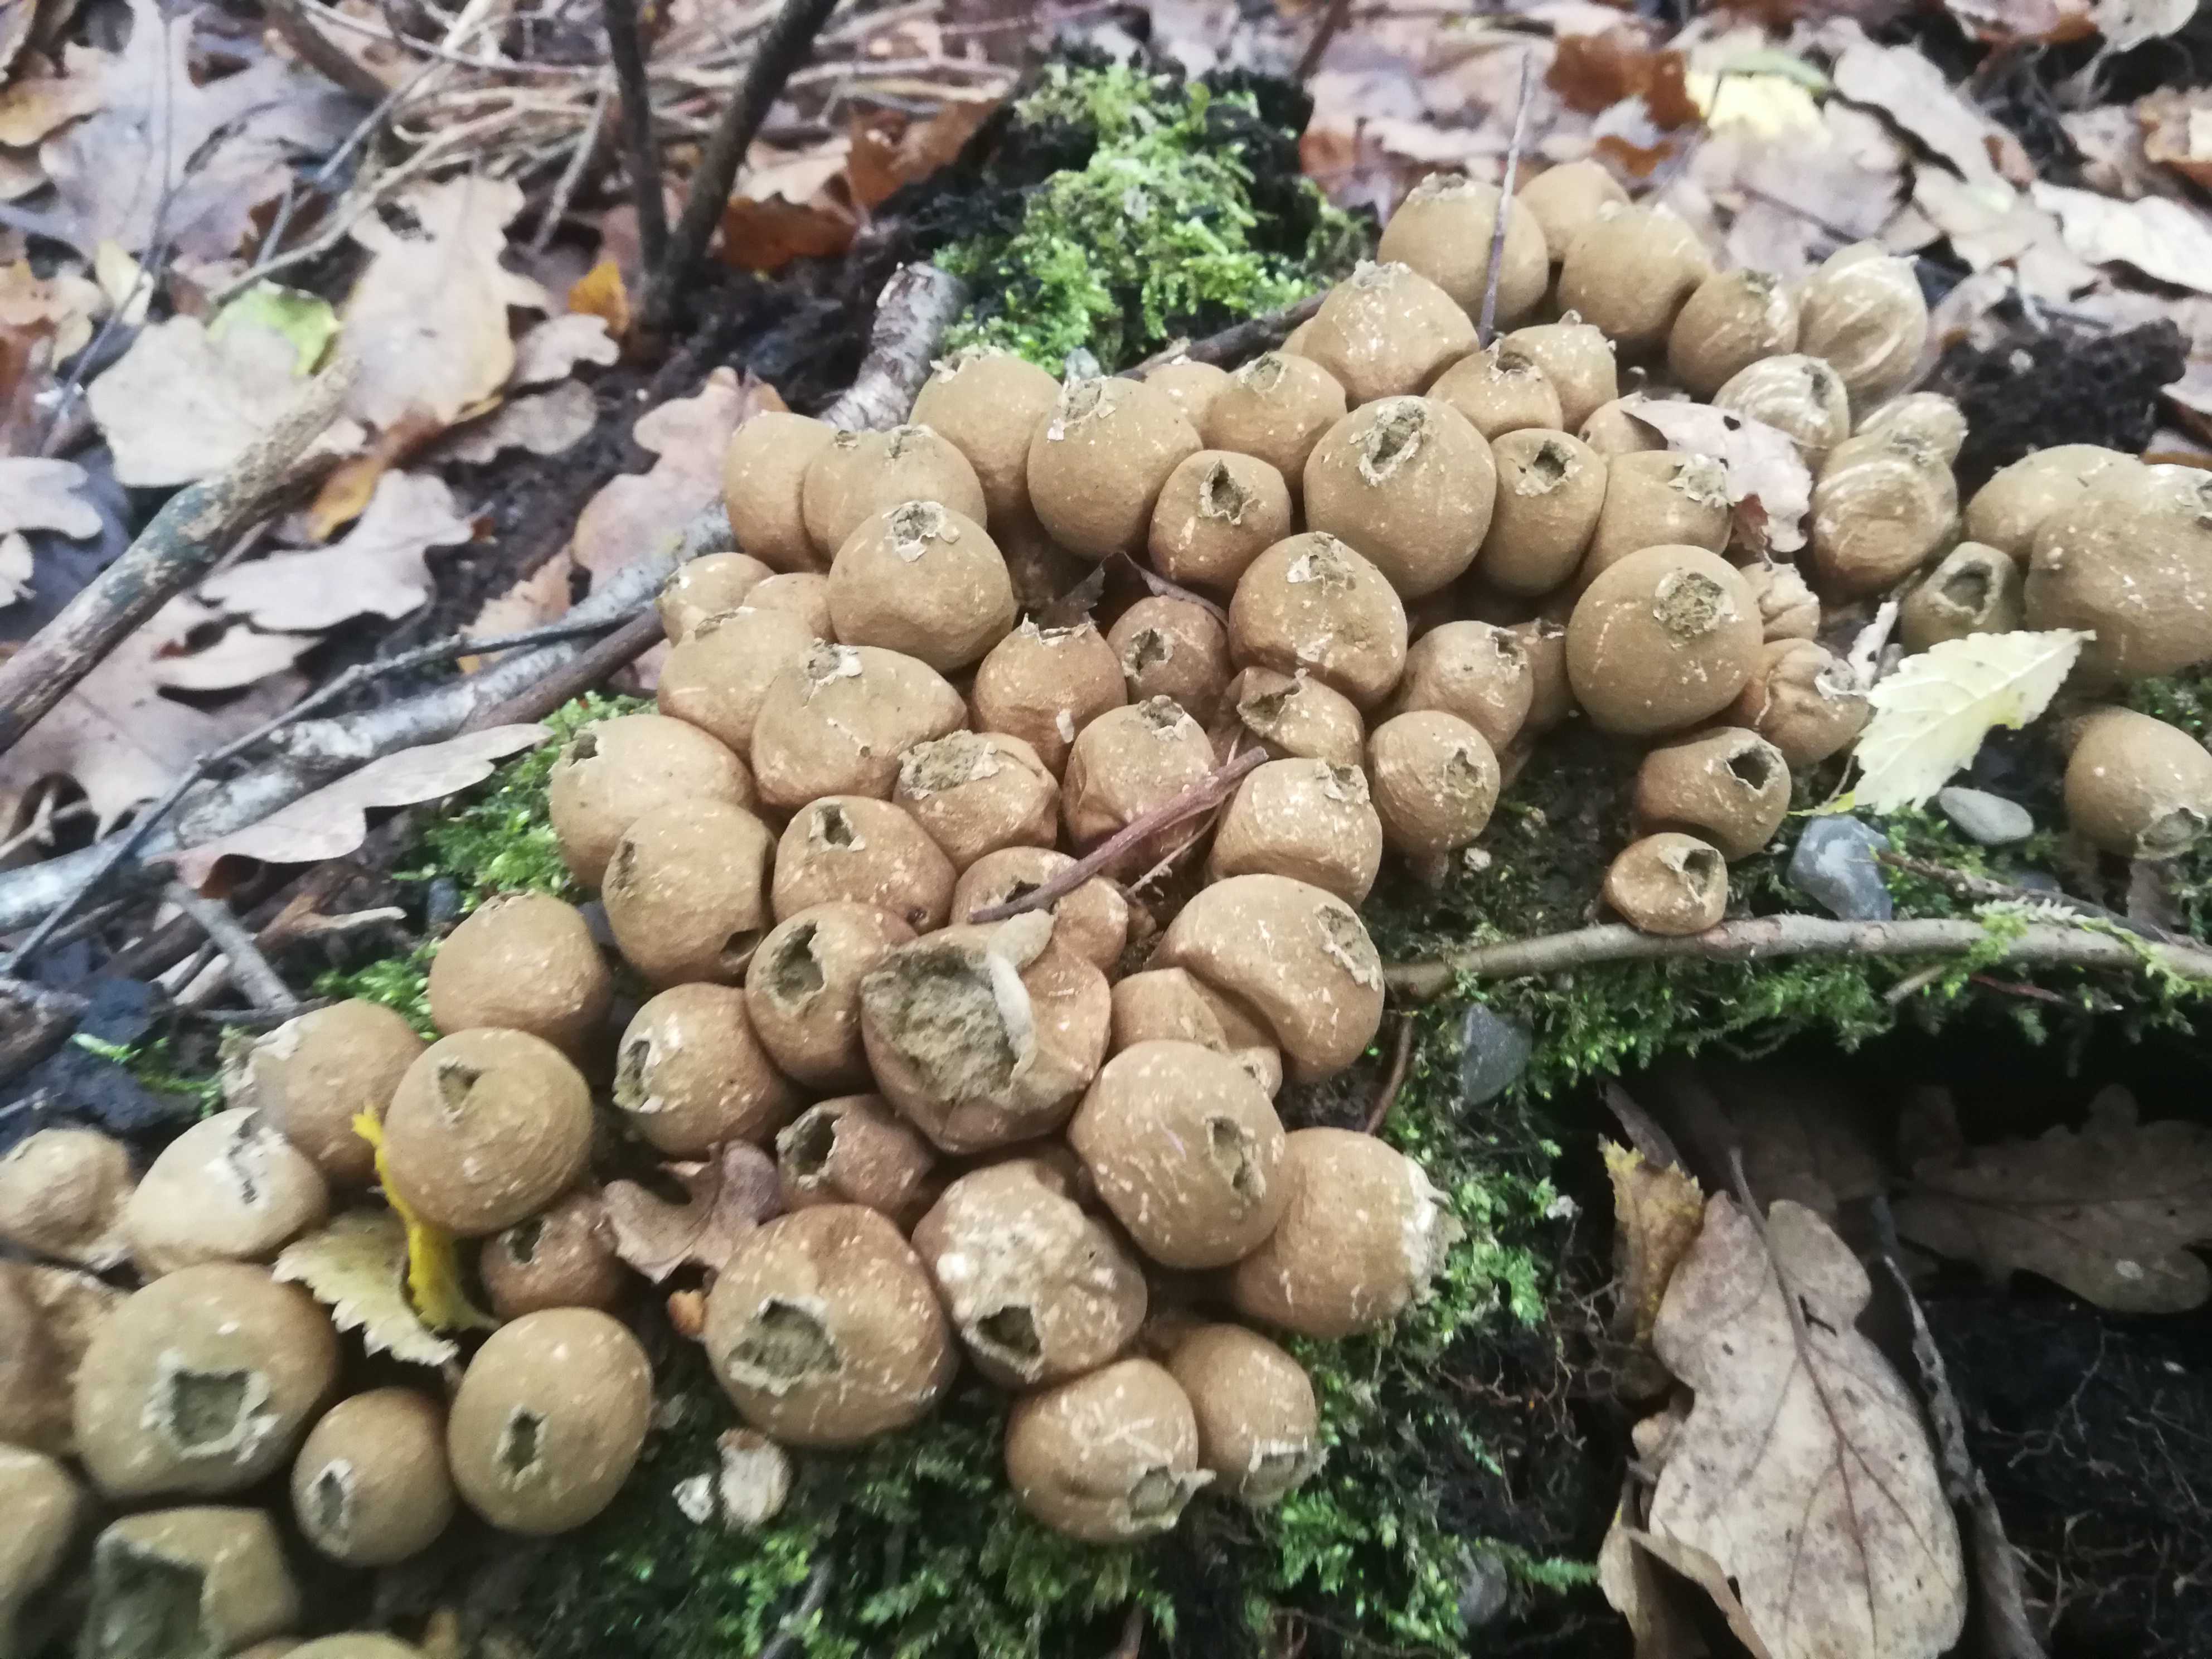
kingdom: Fungi
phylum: Basidiomycota
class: Agaricomycetes
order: Agaricales
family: Lycoperdaceae
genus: Apioperdon
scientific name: Apioperdon pyriforme
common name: pære-støvbold
